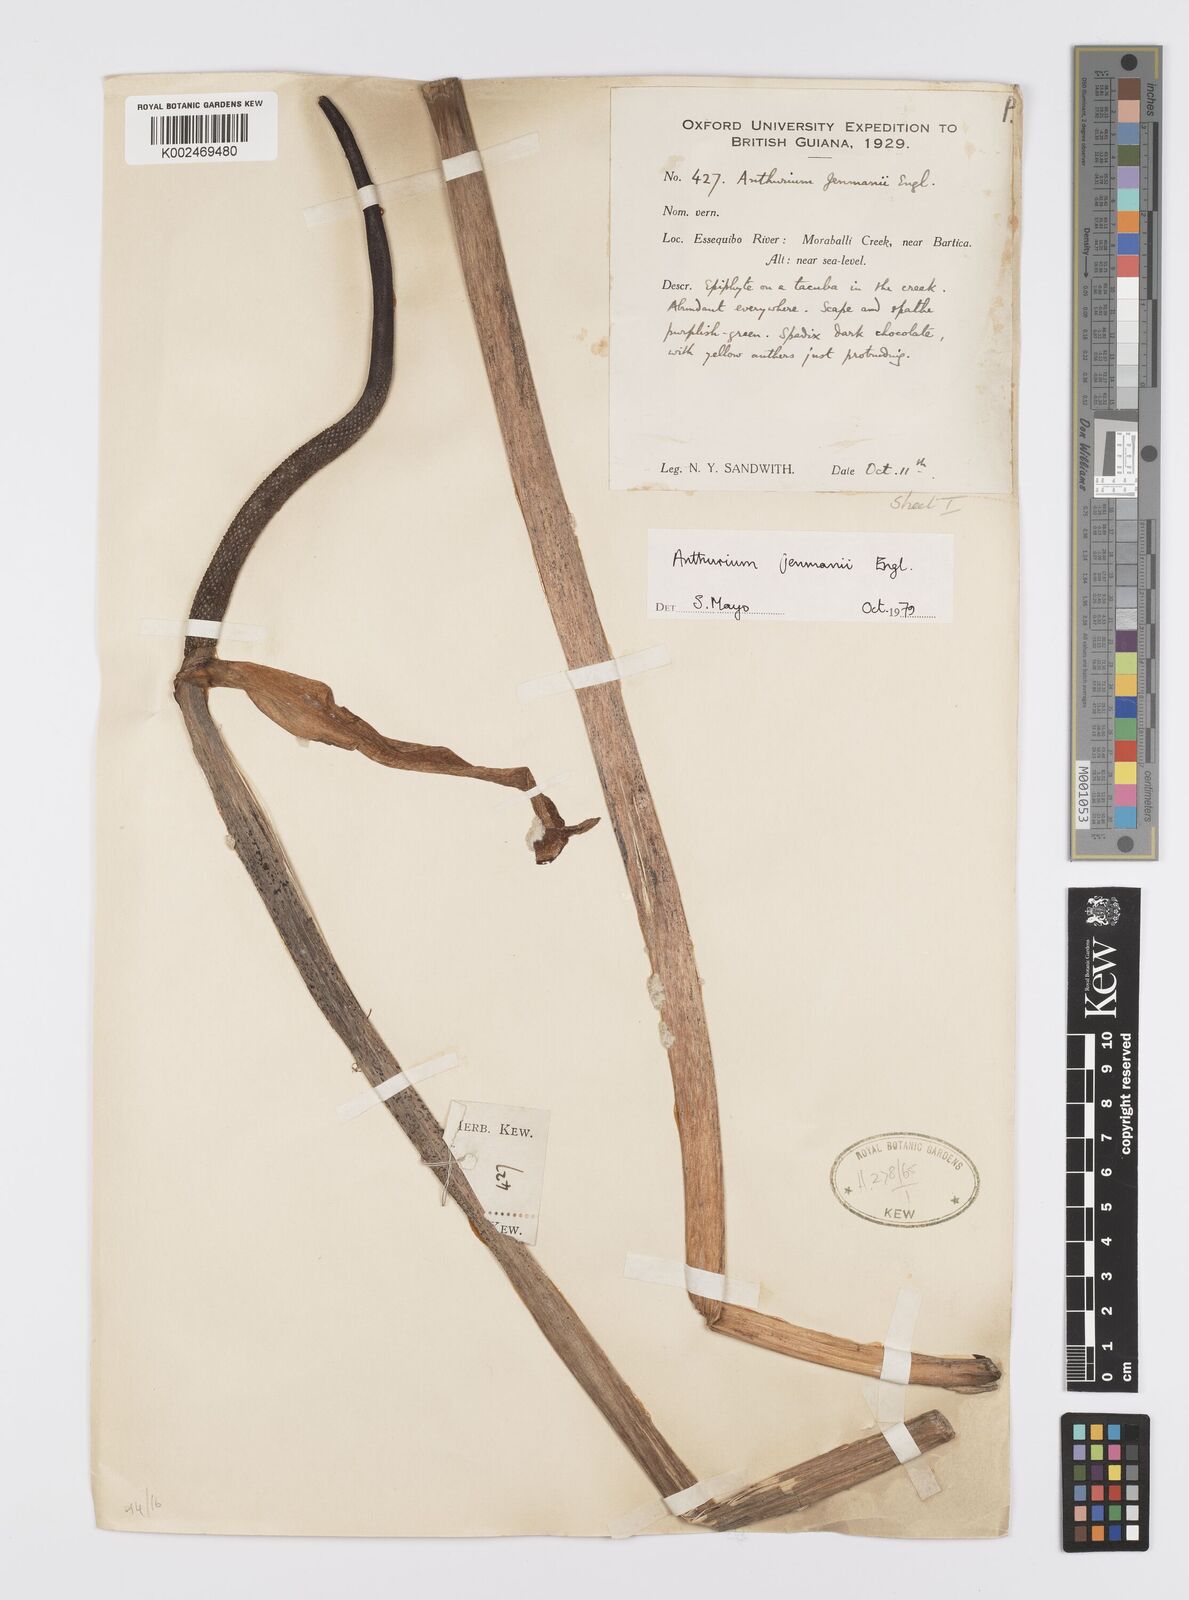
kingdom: Plantae
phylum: Tracheophyta
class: Liliopsida
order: Alismatales
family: Araceae
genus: Anthurium
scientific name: Anthurium jenmanii
